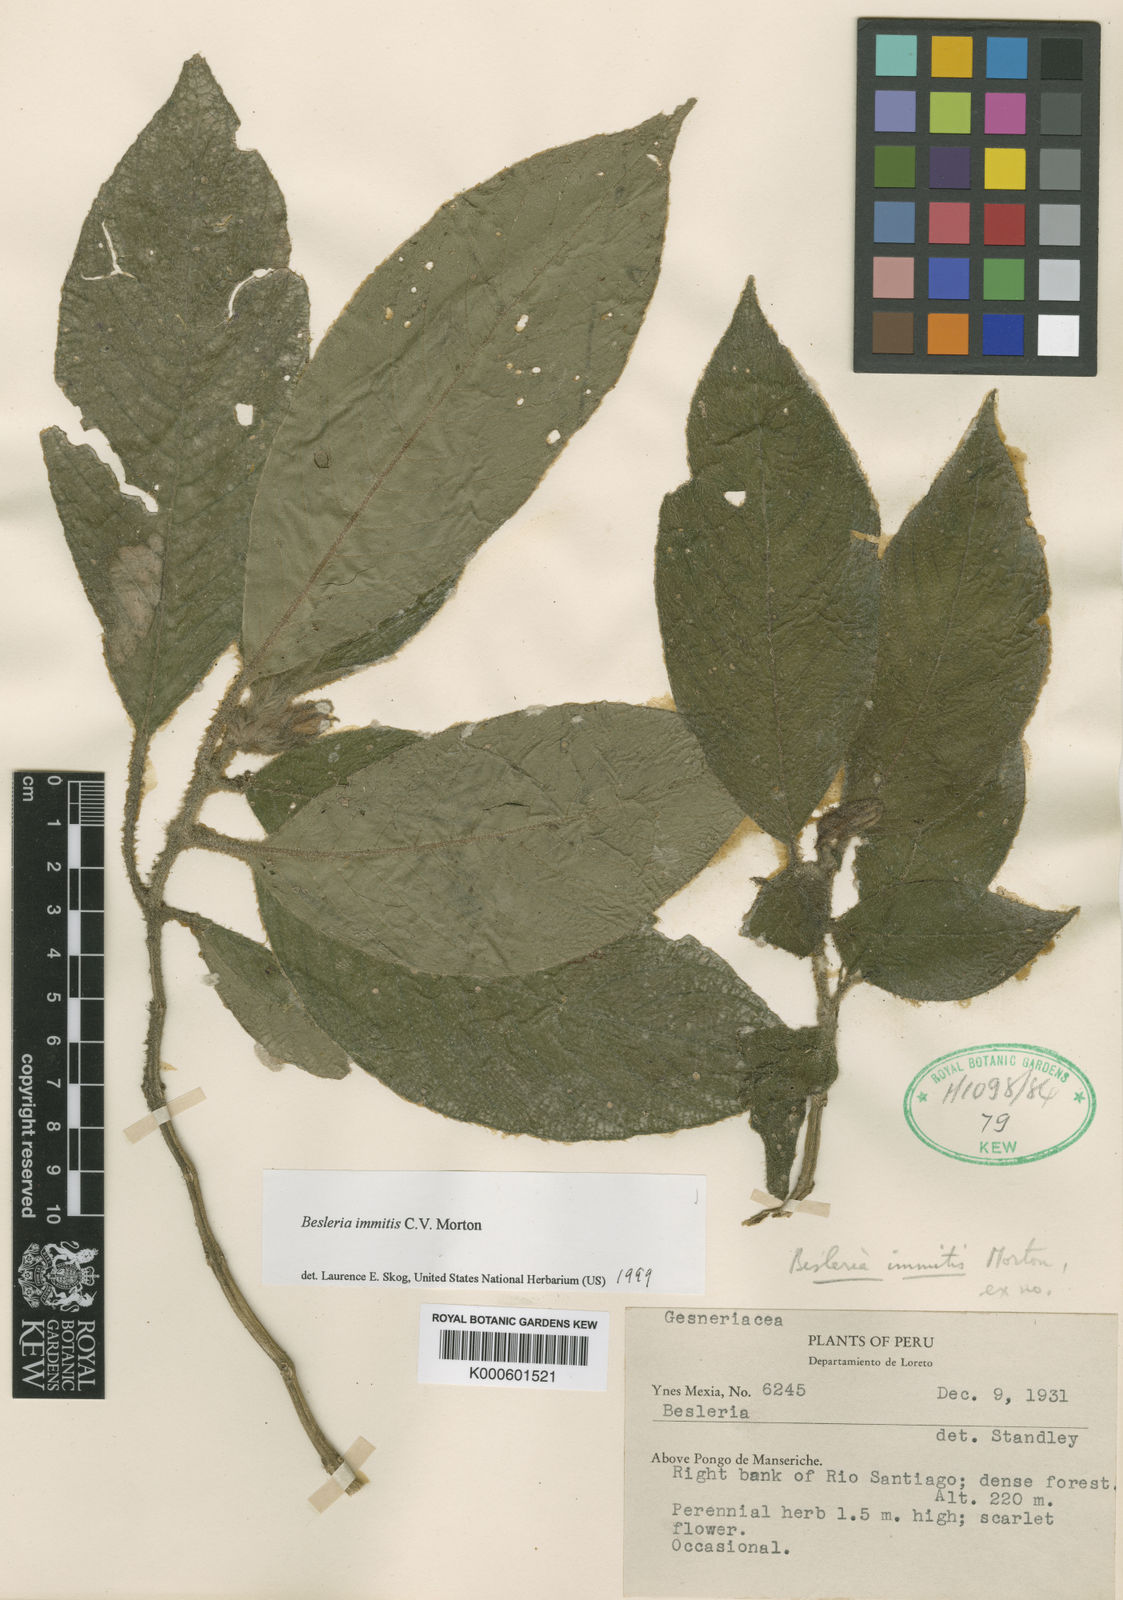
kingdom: Plantae
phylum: Tracheophyta
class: Magnoliopsida
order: Lamiales
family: Gesneriaceae
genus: Besleria
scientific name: Besleria membranacea
